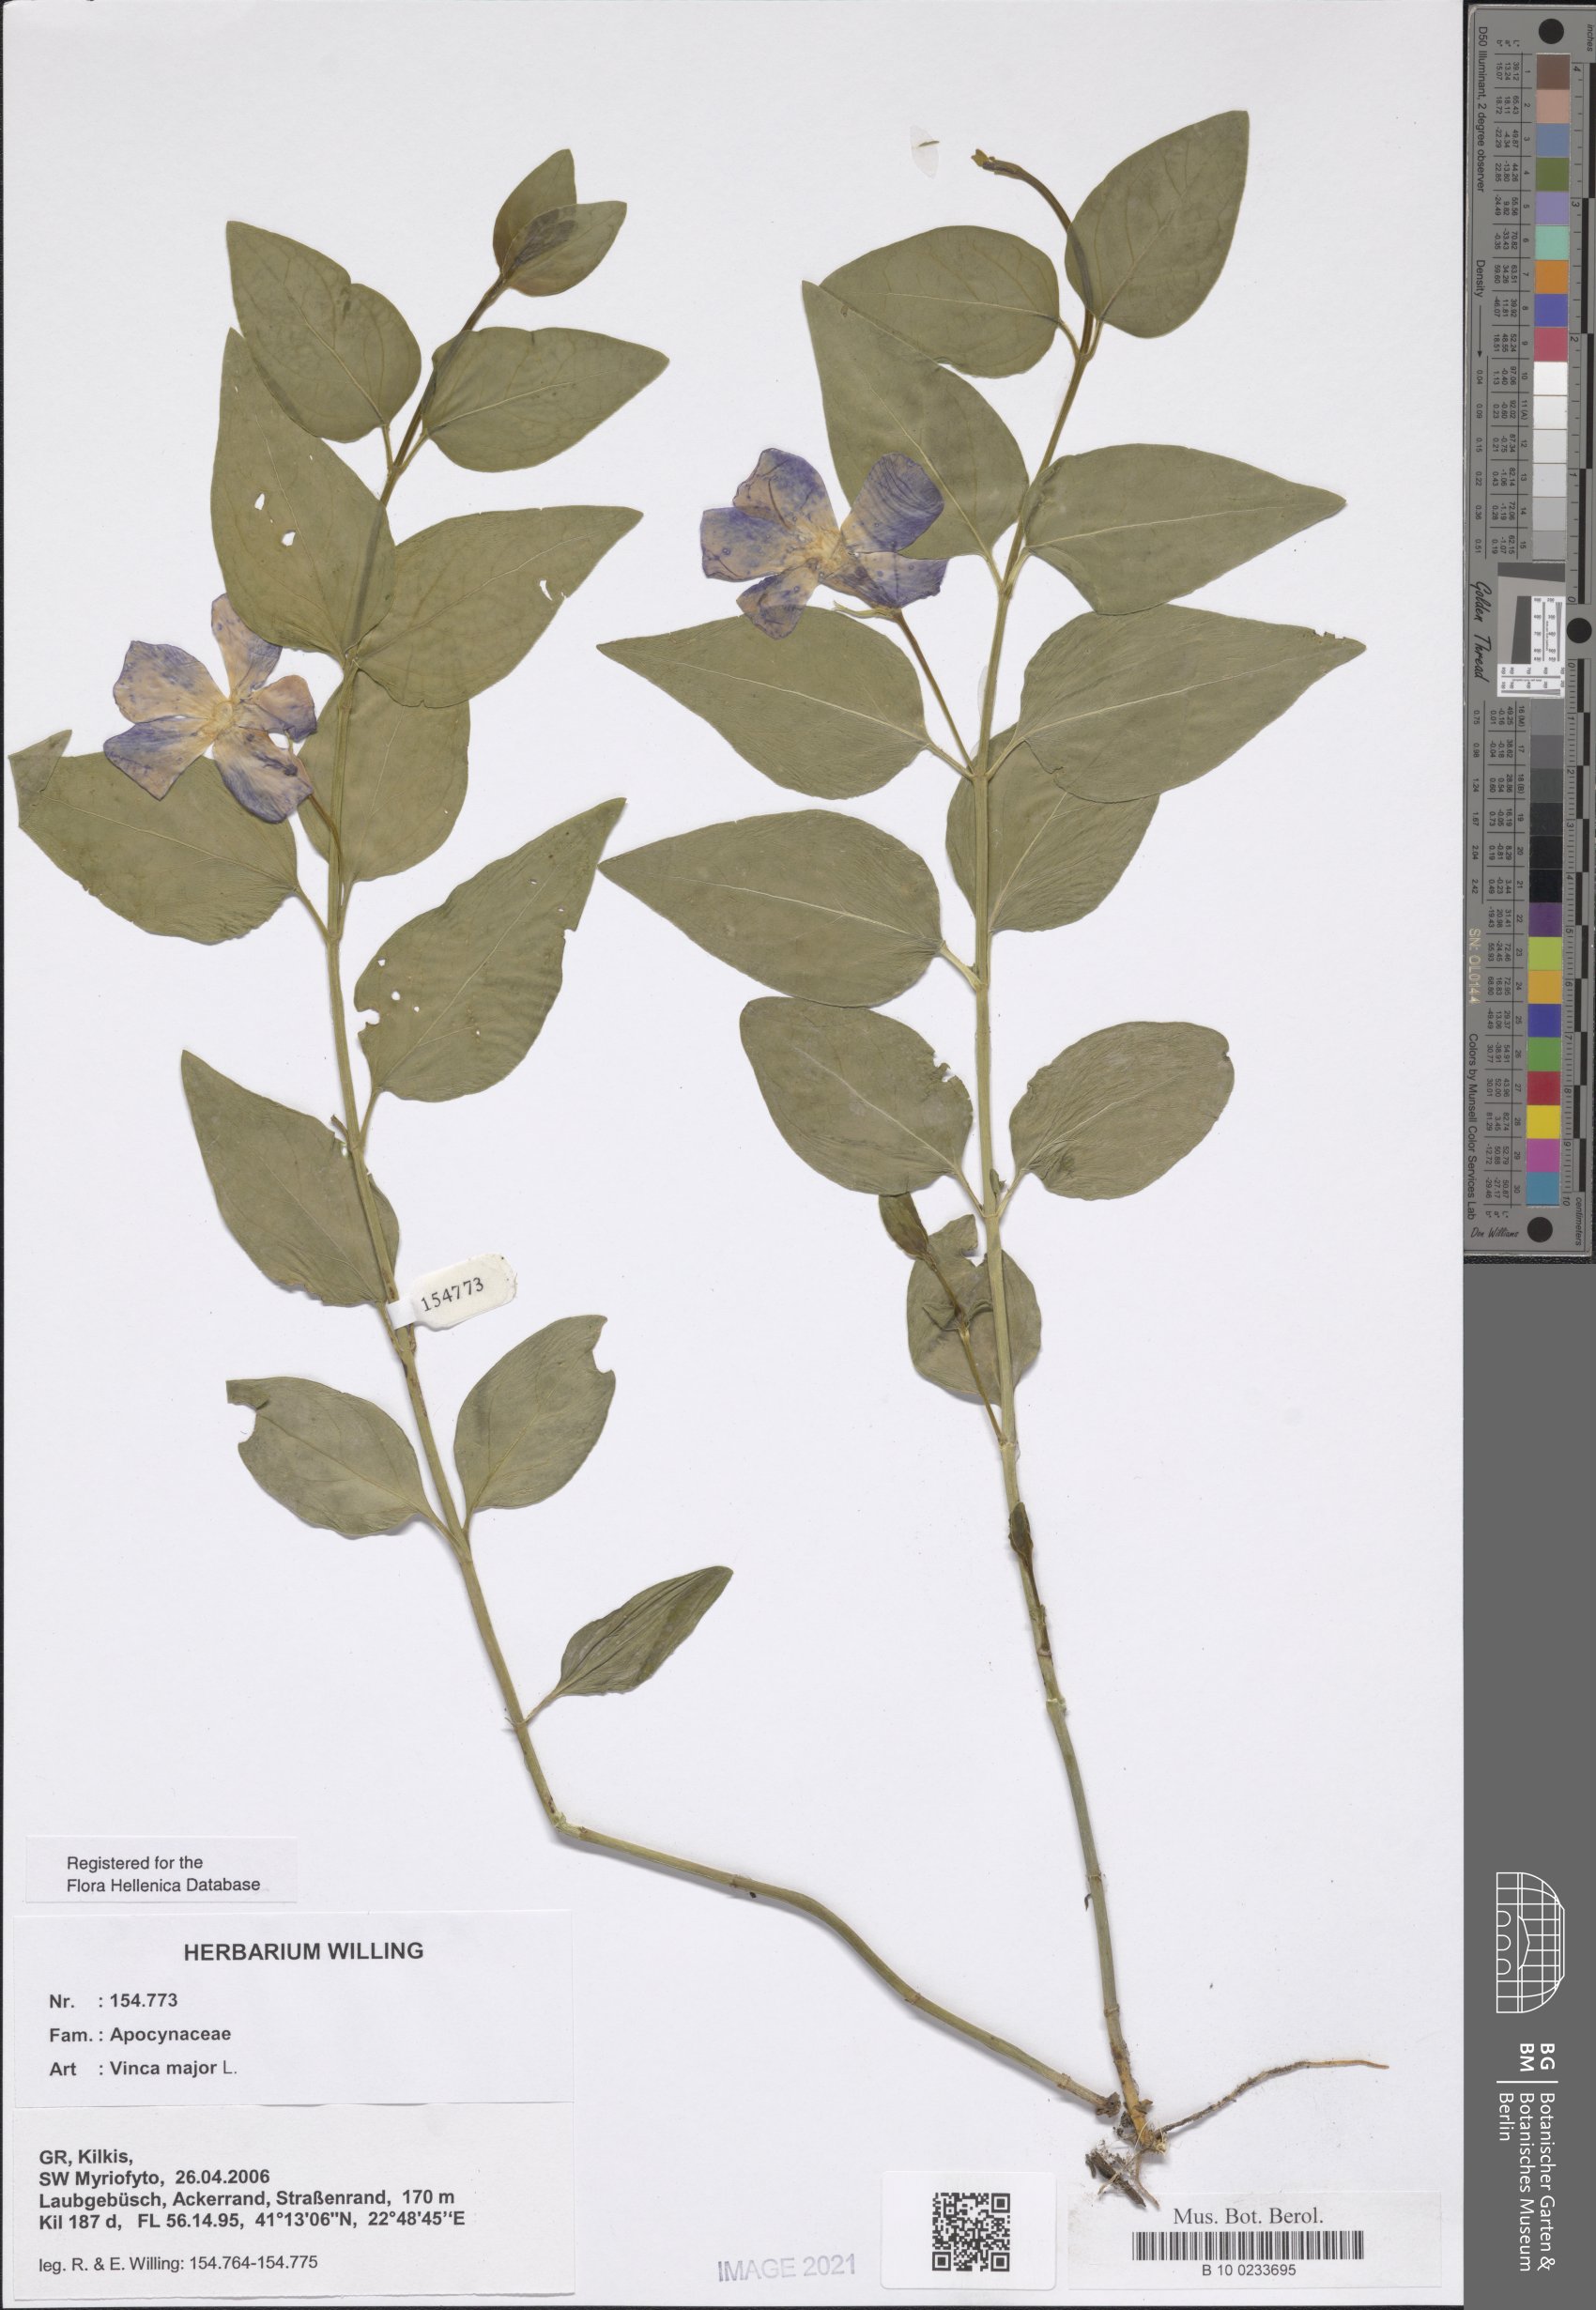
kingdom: Plantae
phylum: Tracheophyta
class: Magnoliopsida
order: Gentianales
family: Apocynaceae
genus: Vinca
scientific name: Vinca major
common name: Greater periwinkle
